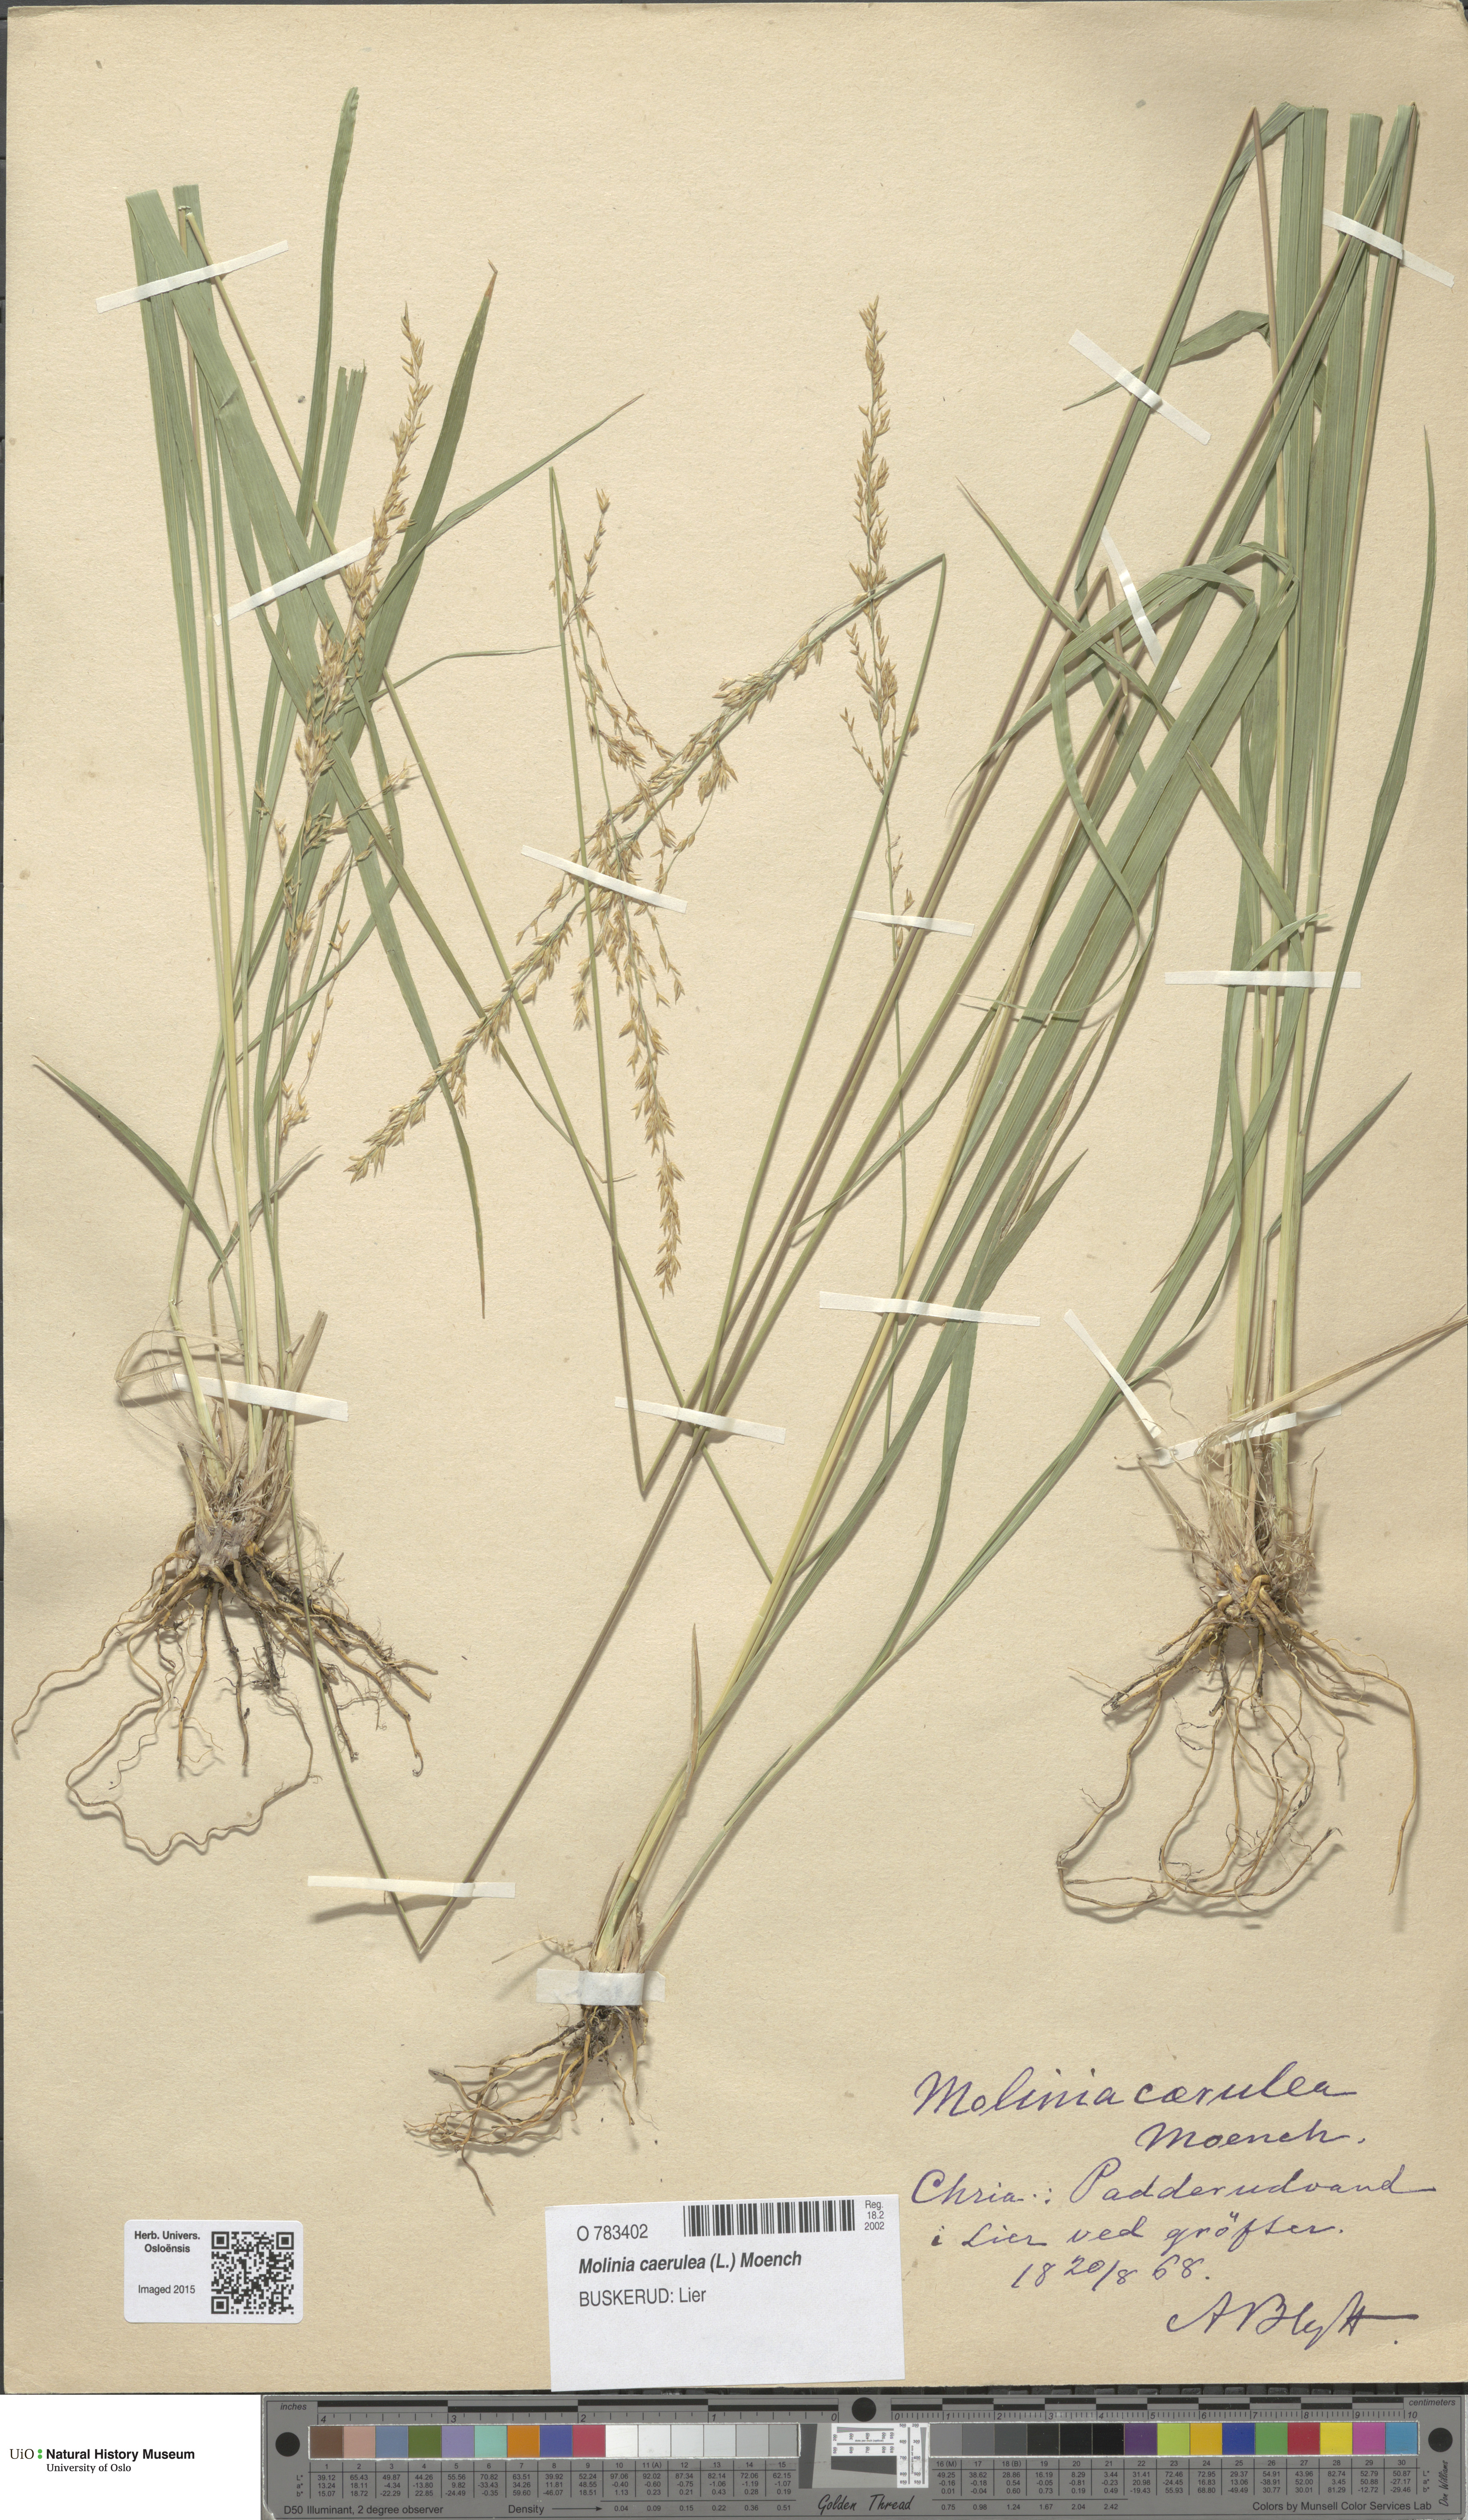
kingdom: Plantae
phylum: Tracheophyta
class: Liliopsida
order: Poales
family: Poaceae
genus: Molinia
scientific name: Molinia caerulea
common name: Purple moor-grass
